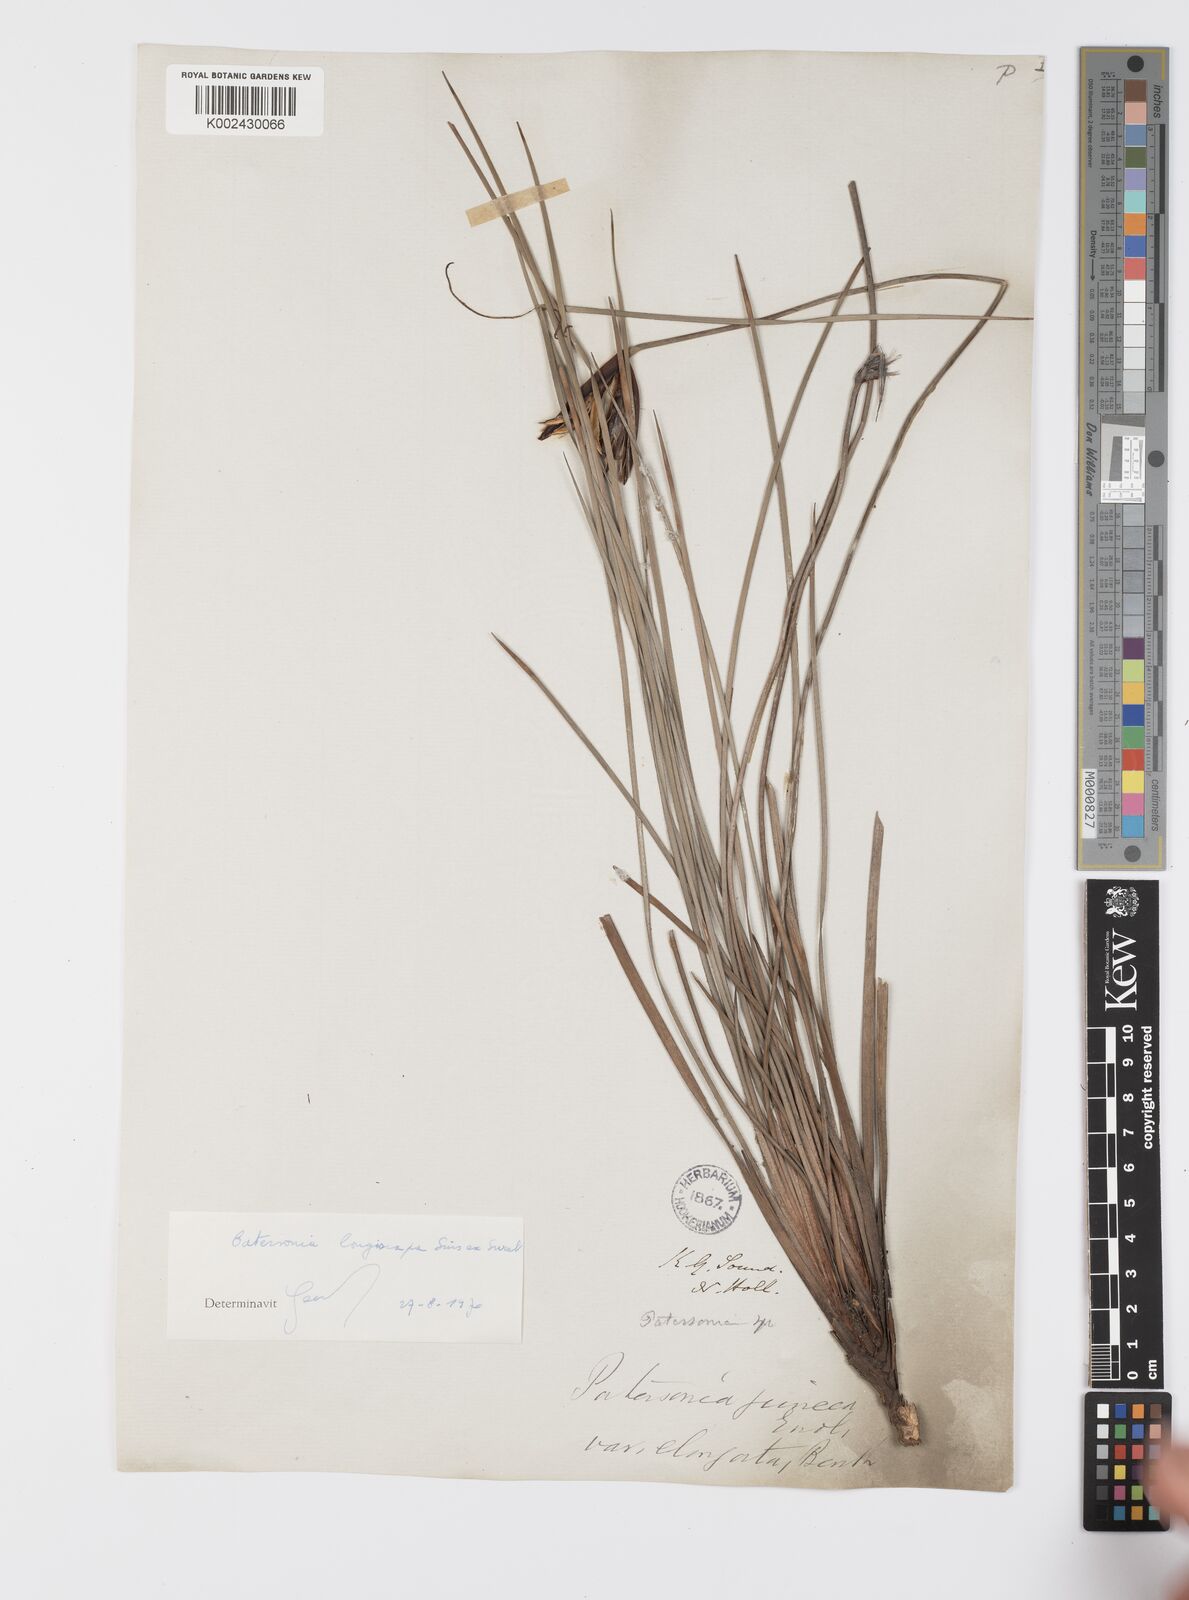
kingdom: Plantae
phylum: Tracheophyta
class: Liliopsida
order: Asparagales
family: Iridaceae
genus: Patersonia
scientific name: Patersonia juncea
